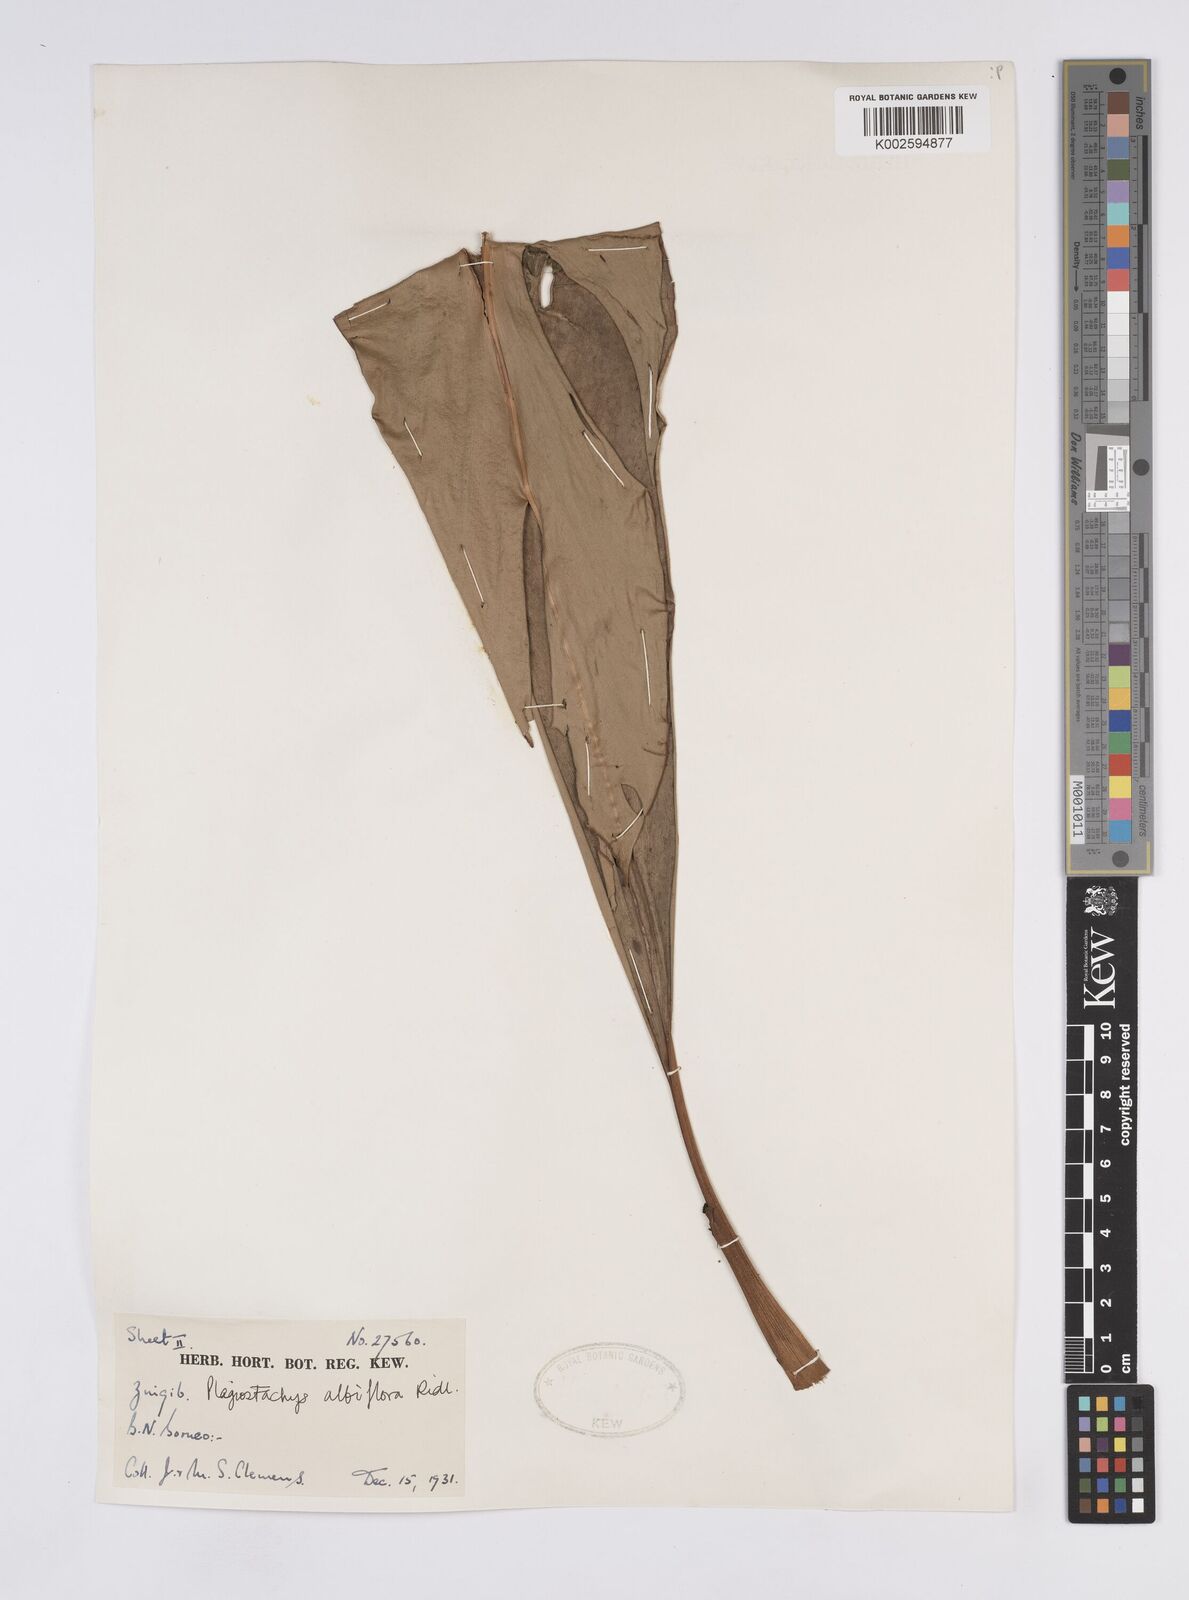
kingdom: Plantae
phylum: Tracheophyta
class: Liliopsida
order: Zingiberales
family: Zingiberaceae
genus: Plagiostachys
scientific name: Plagiostachys albiflora
